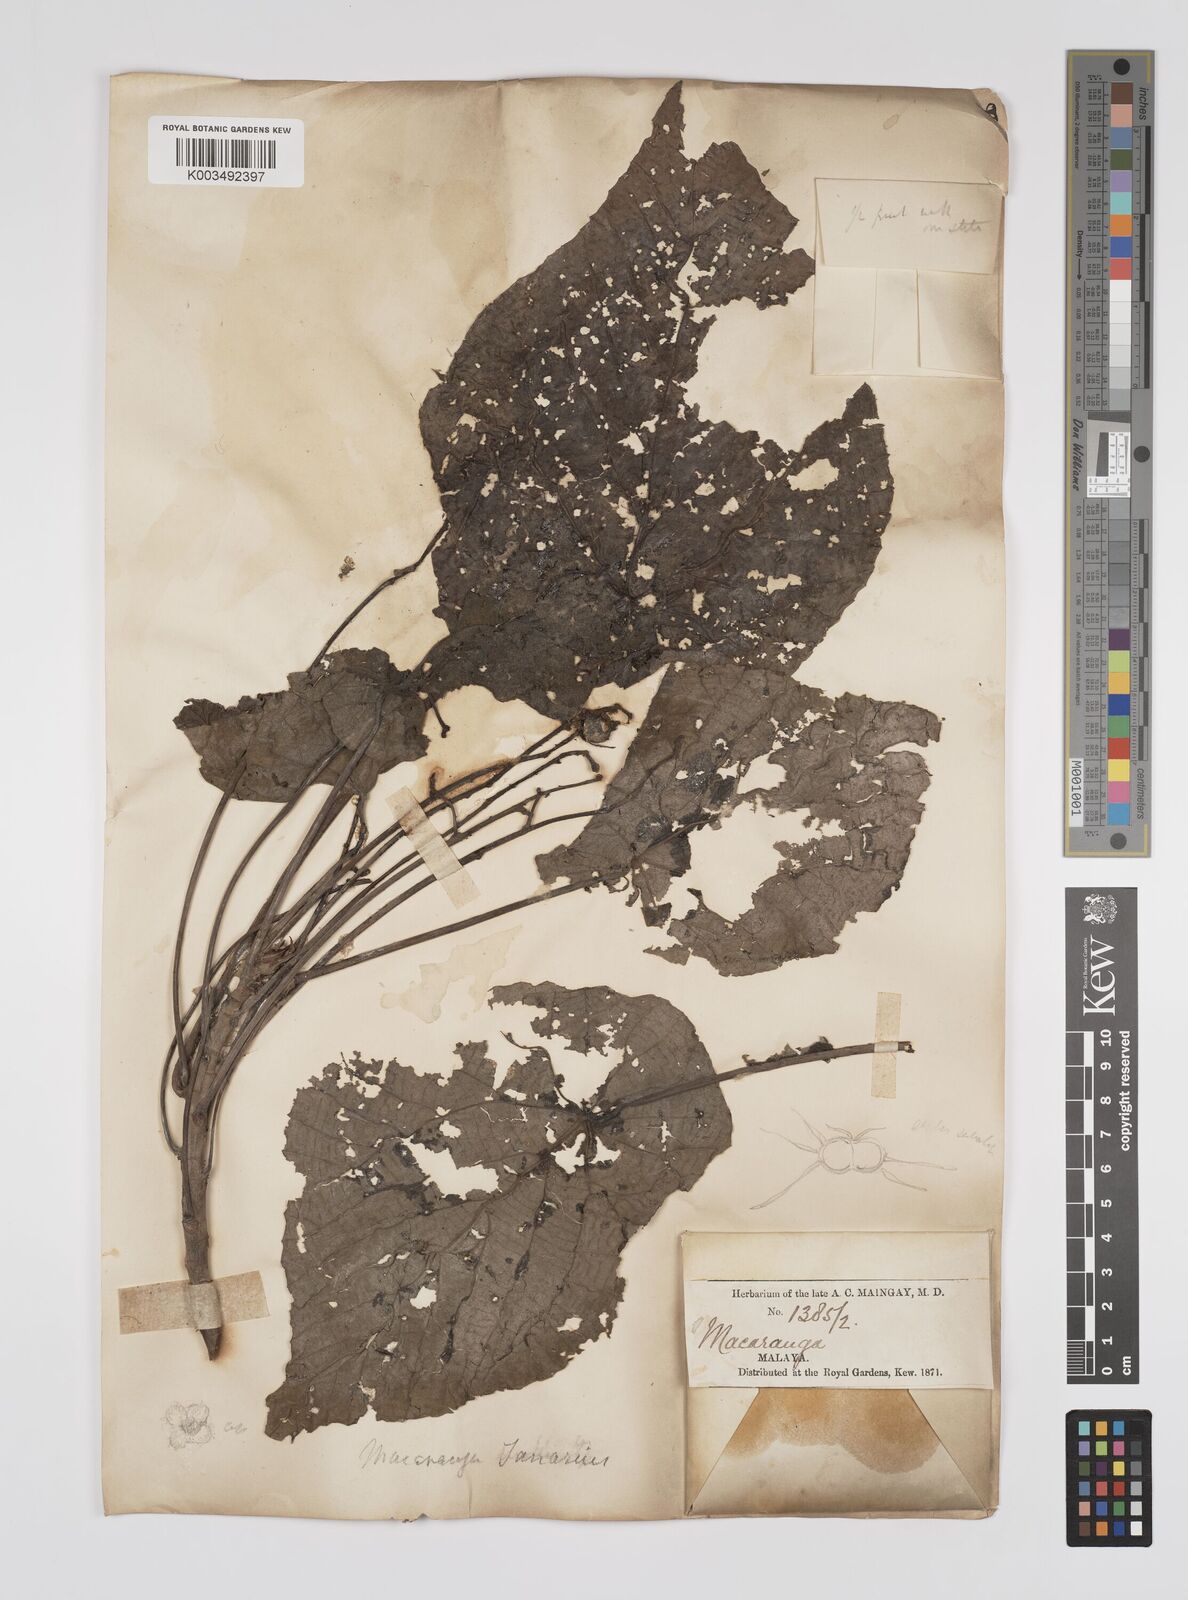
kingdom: Plantae
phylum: Tracheophyta
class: Magnoliopsida
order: Malpighiales
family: Euphorbiaceae
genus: Macaranga
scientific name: Macaranga tanarius
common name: Parasol leaf tree
